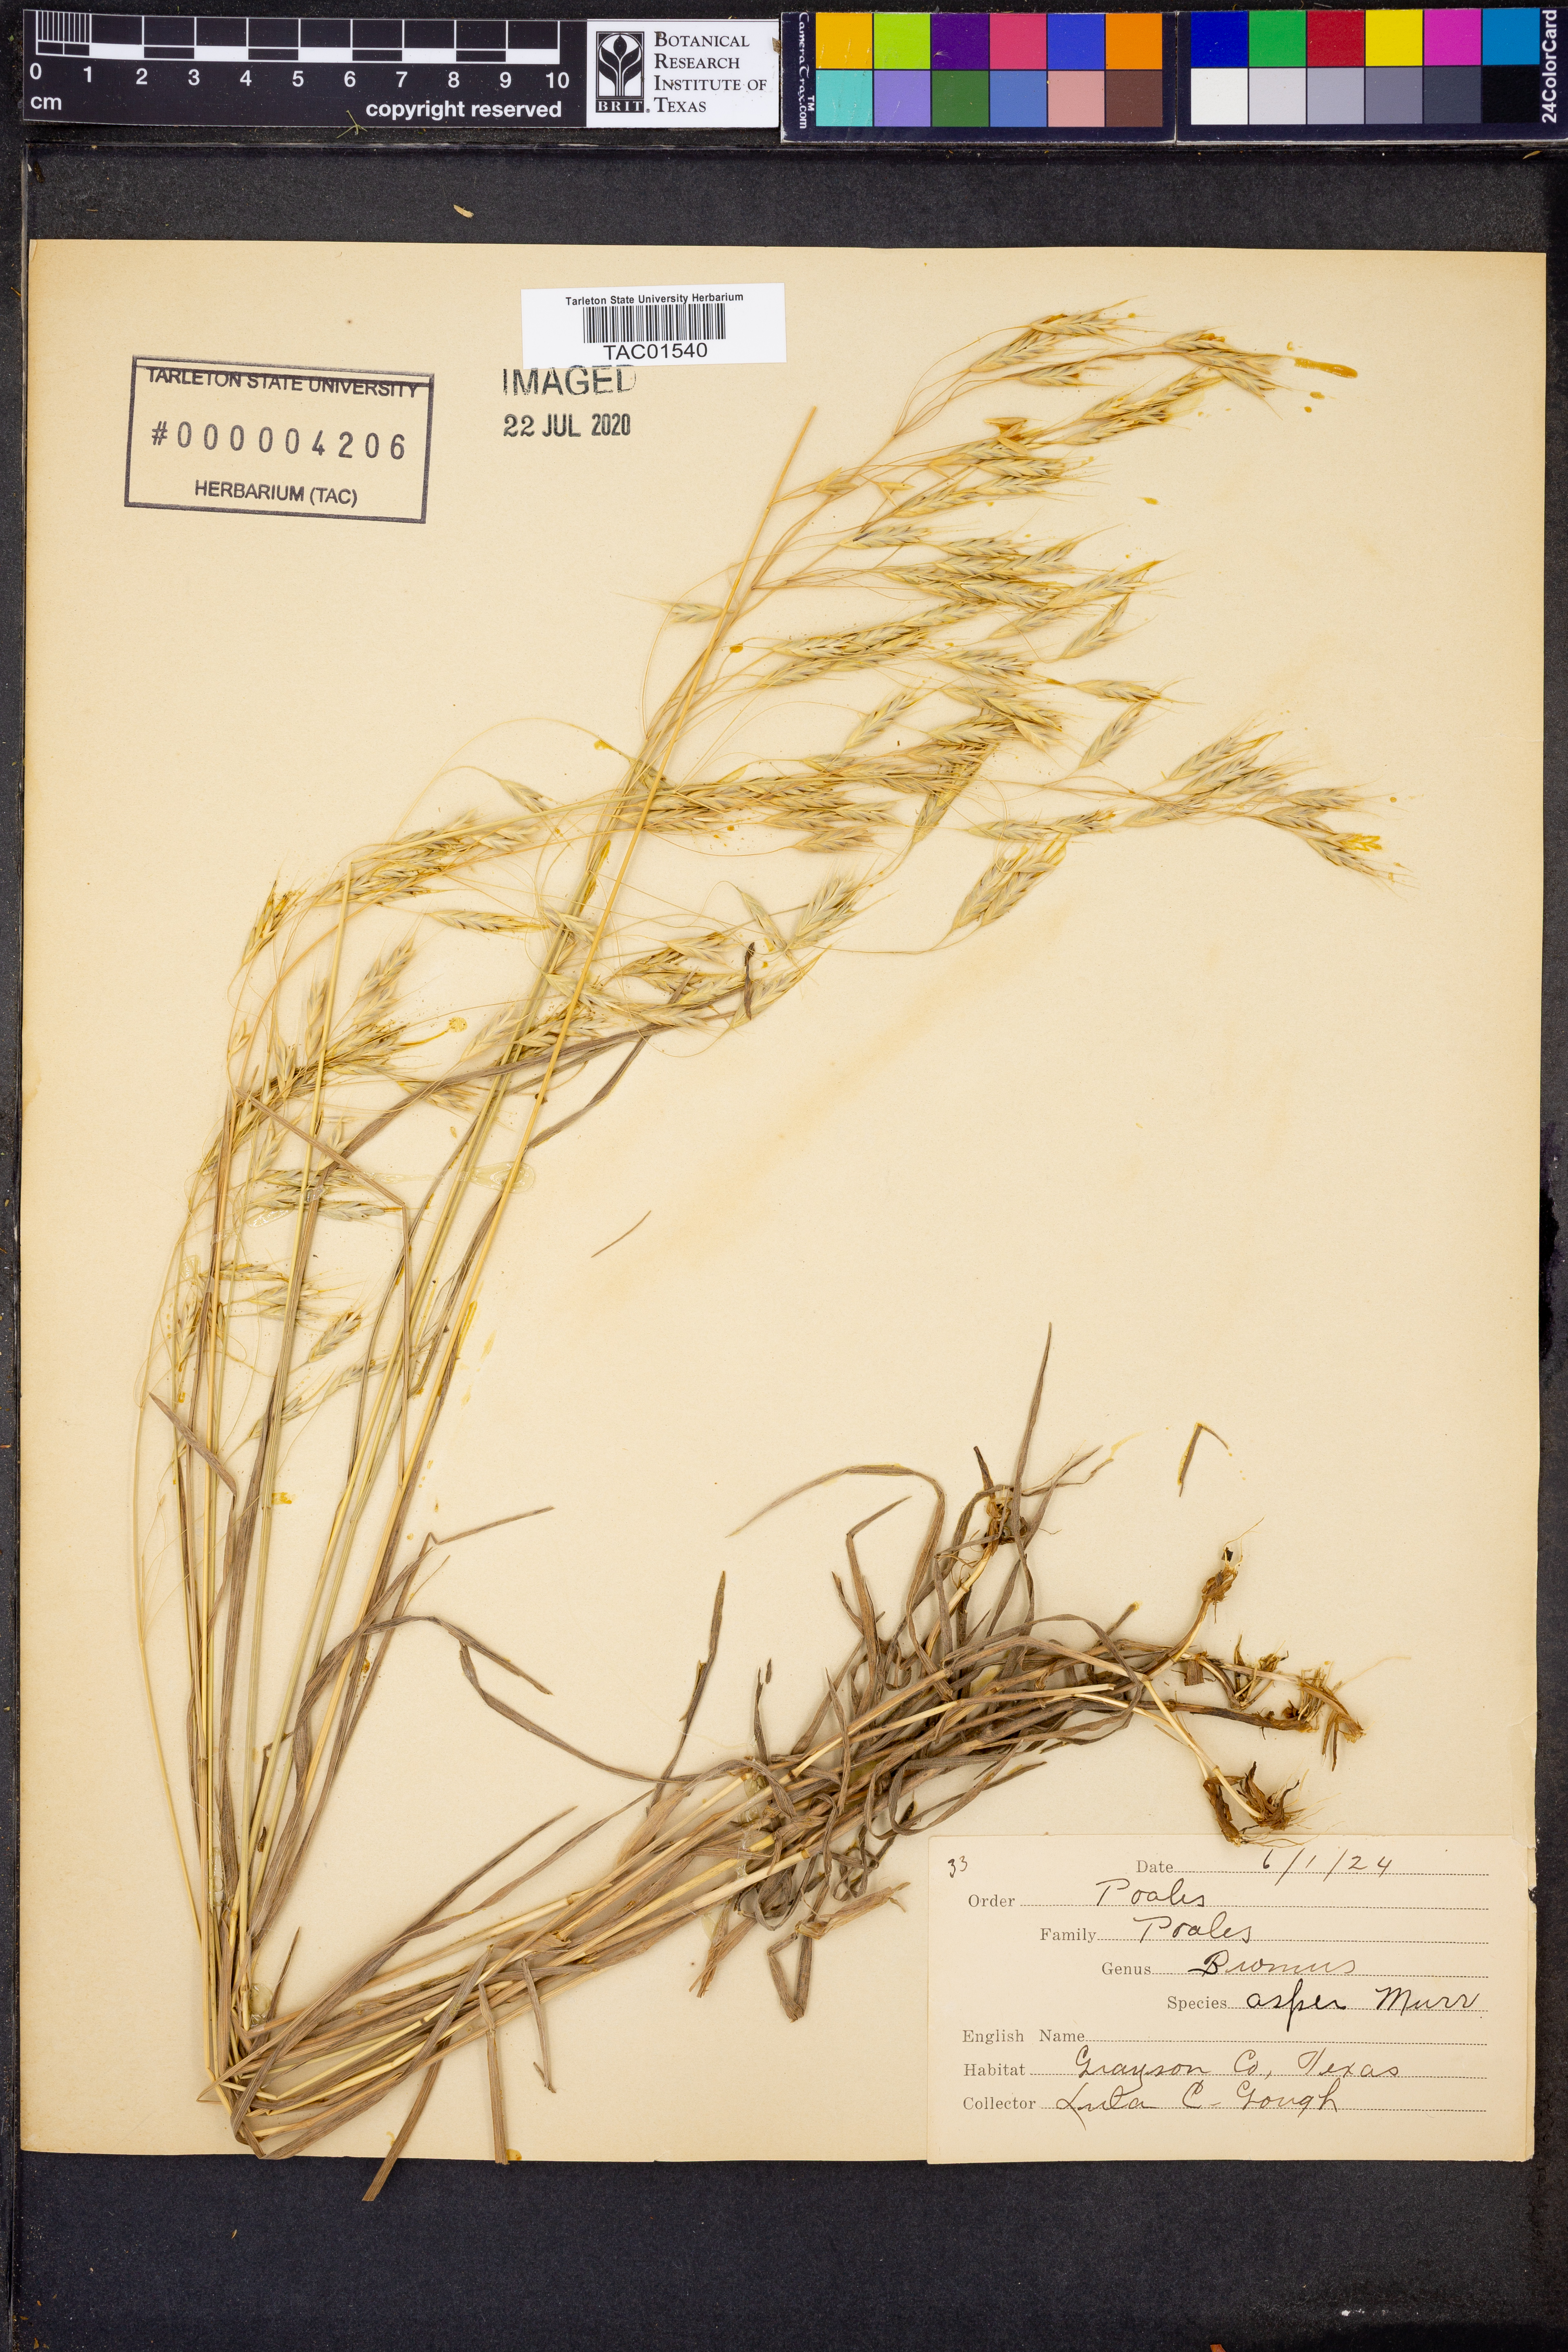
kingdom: Plantae
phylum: Tracheophyta
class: Liliopsida
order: Poales
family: Poaceae
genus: Bromus
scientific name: Bromus ramosus
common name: Hairy brome
